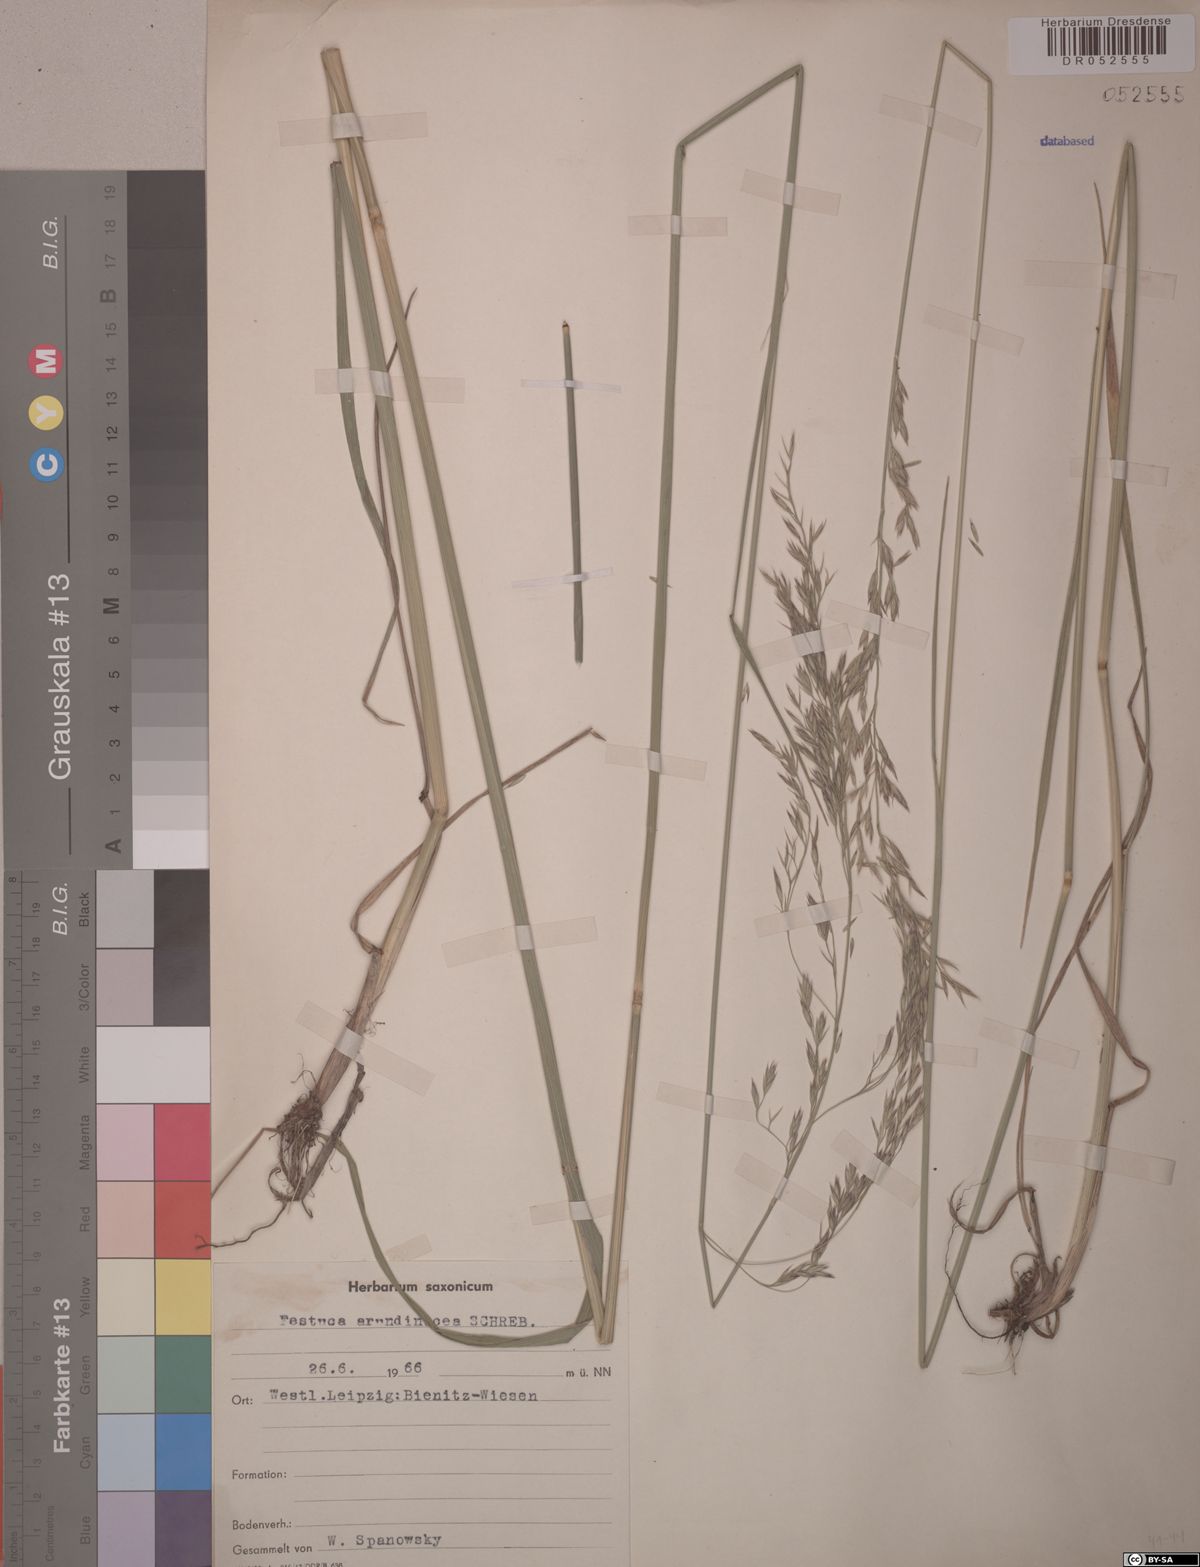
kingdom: Plantae
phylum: Tracheophyta
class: Liliopsida
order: Poales
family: Poaceae
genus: Lolium
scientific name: Lolium arundinaceum
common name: Reed fescue
